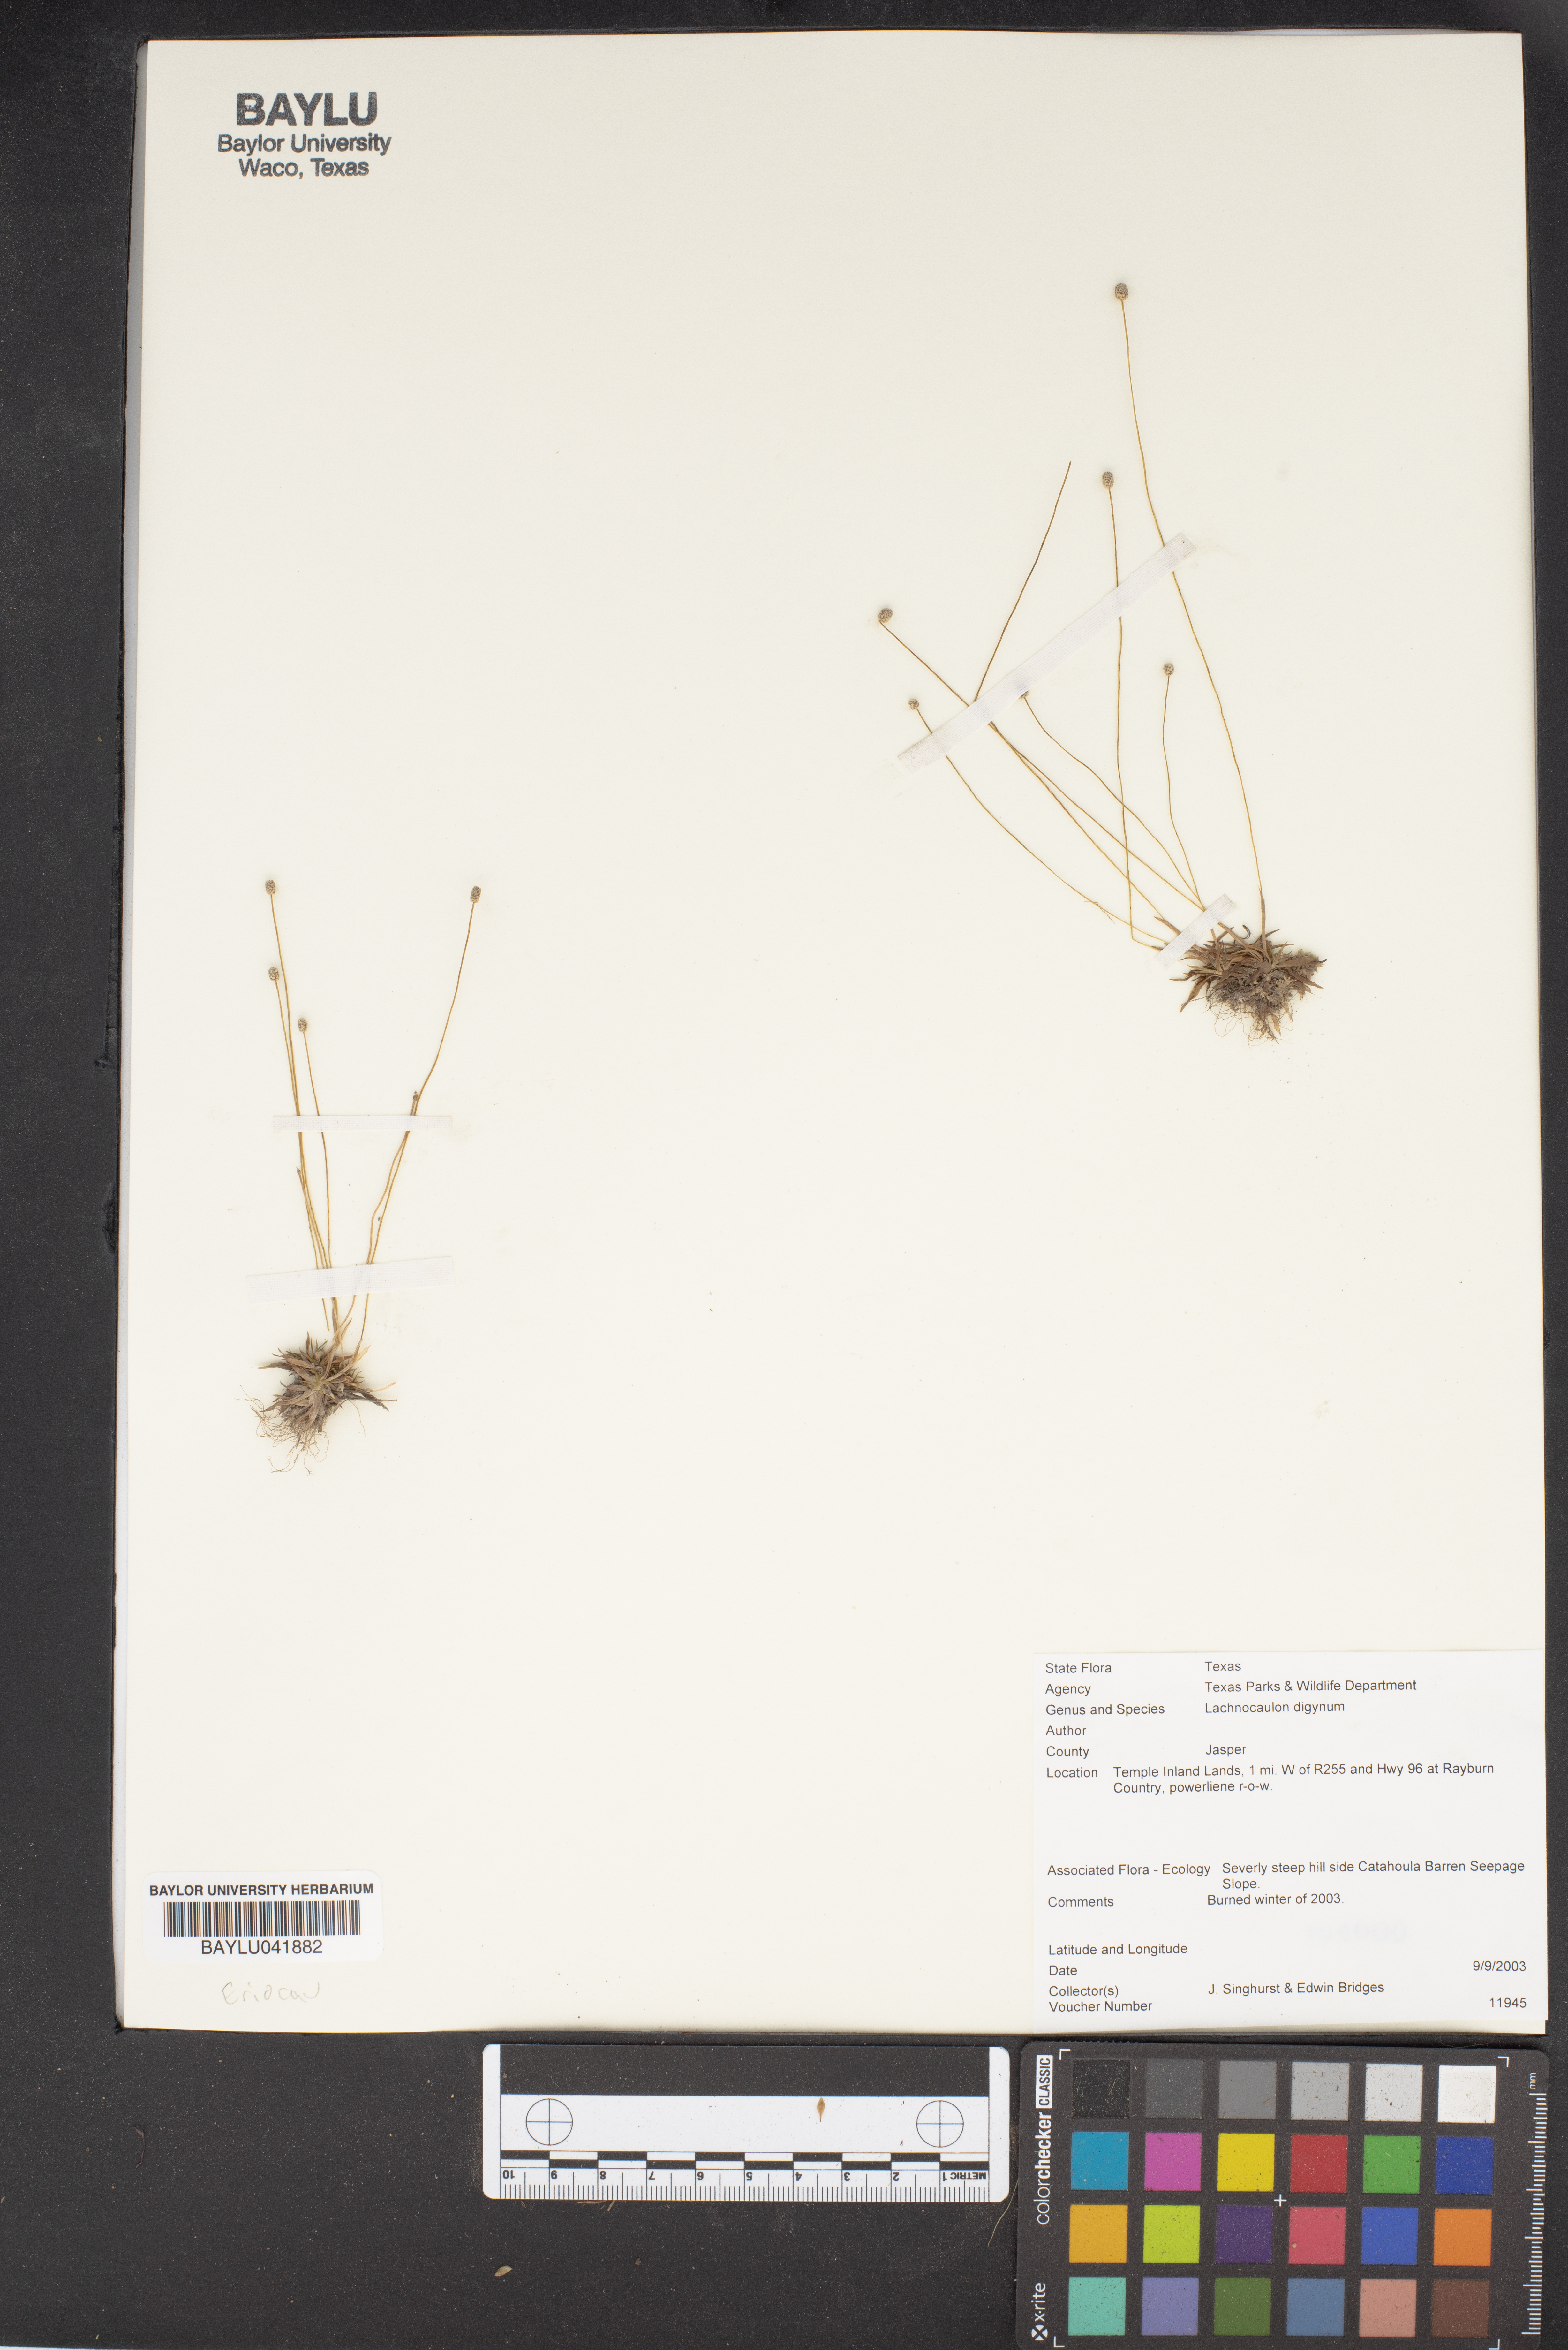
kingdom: Plantae
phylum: Tracheophyta
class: Liliopsida
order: Poales
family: Eriocaulaceae
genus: Paepalanthus
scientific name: Paepalanthus digynus
